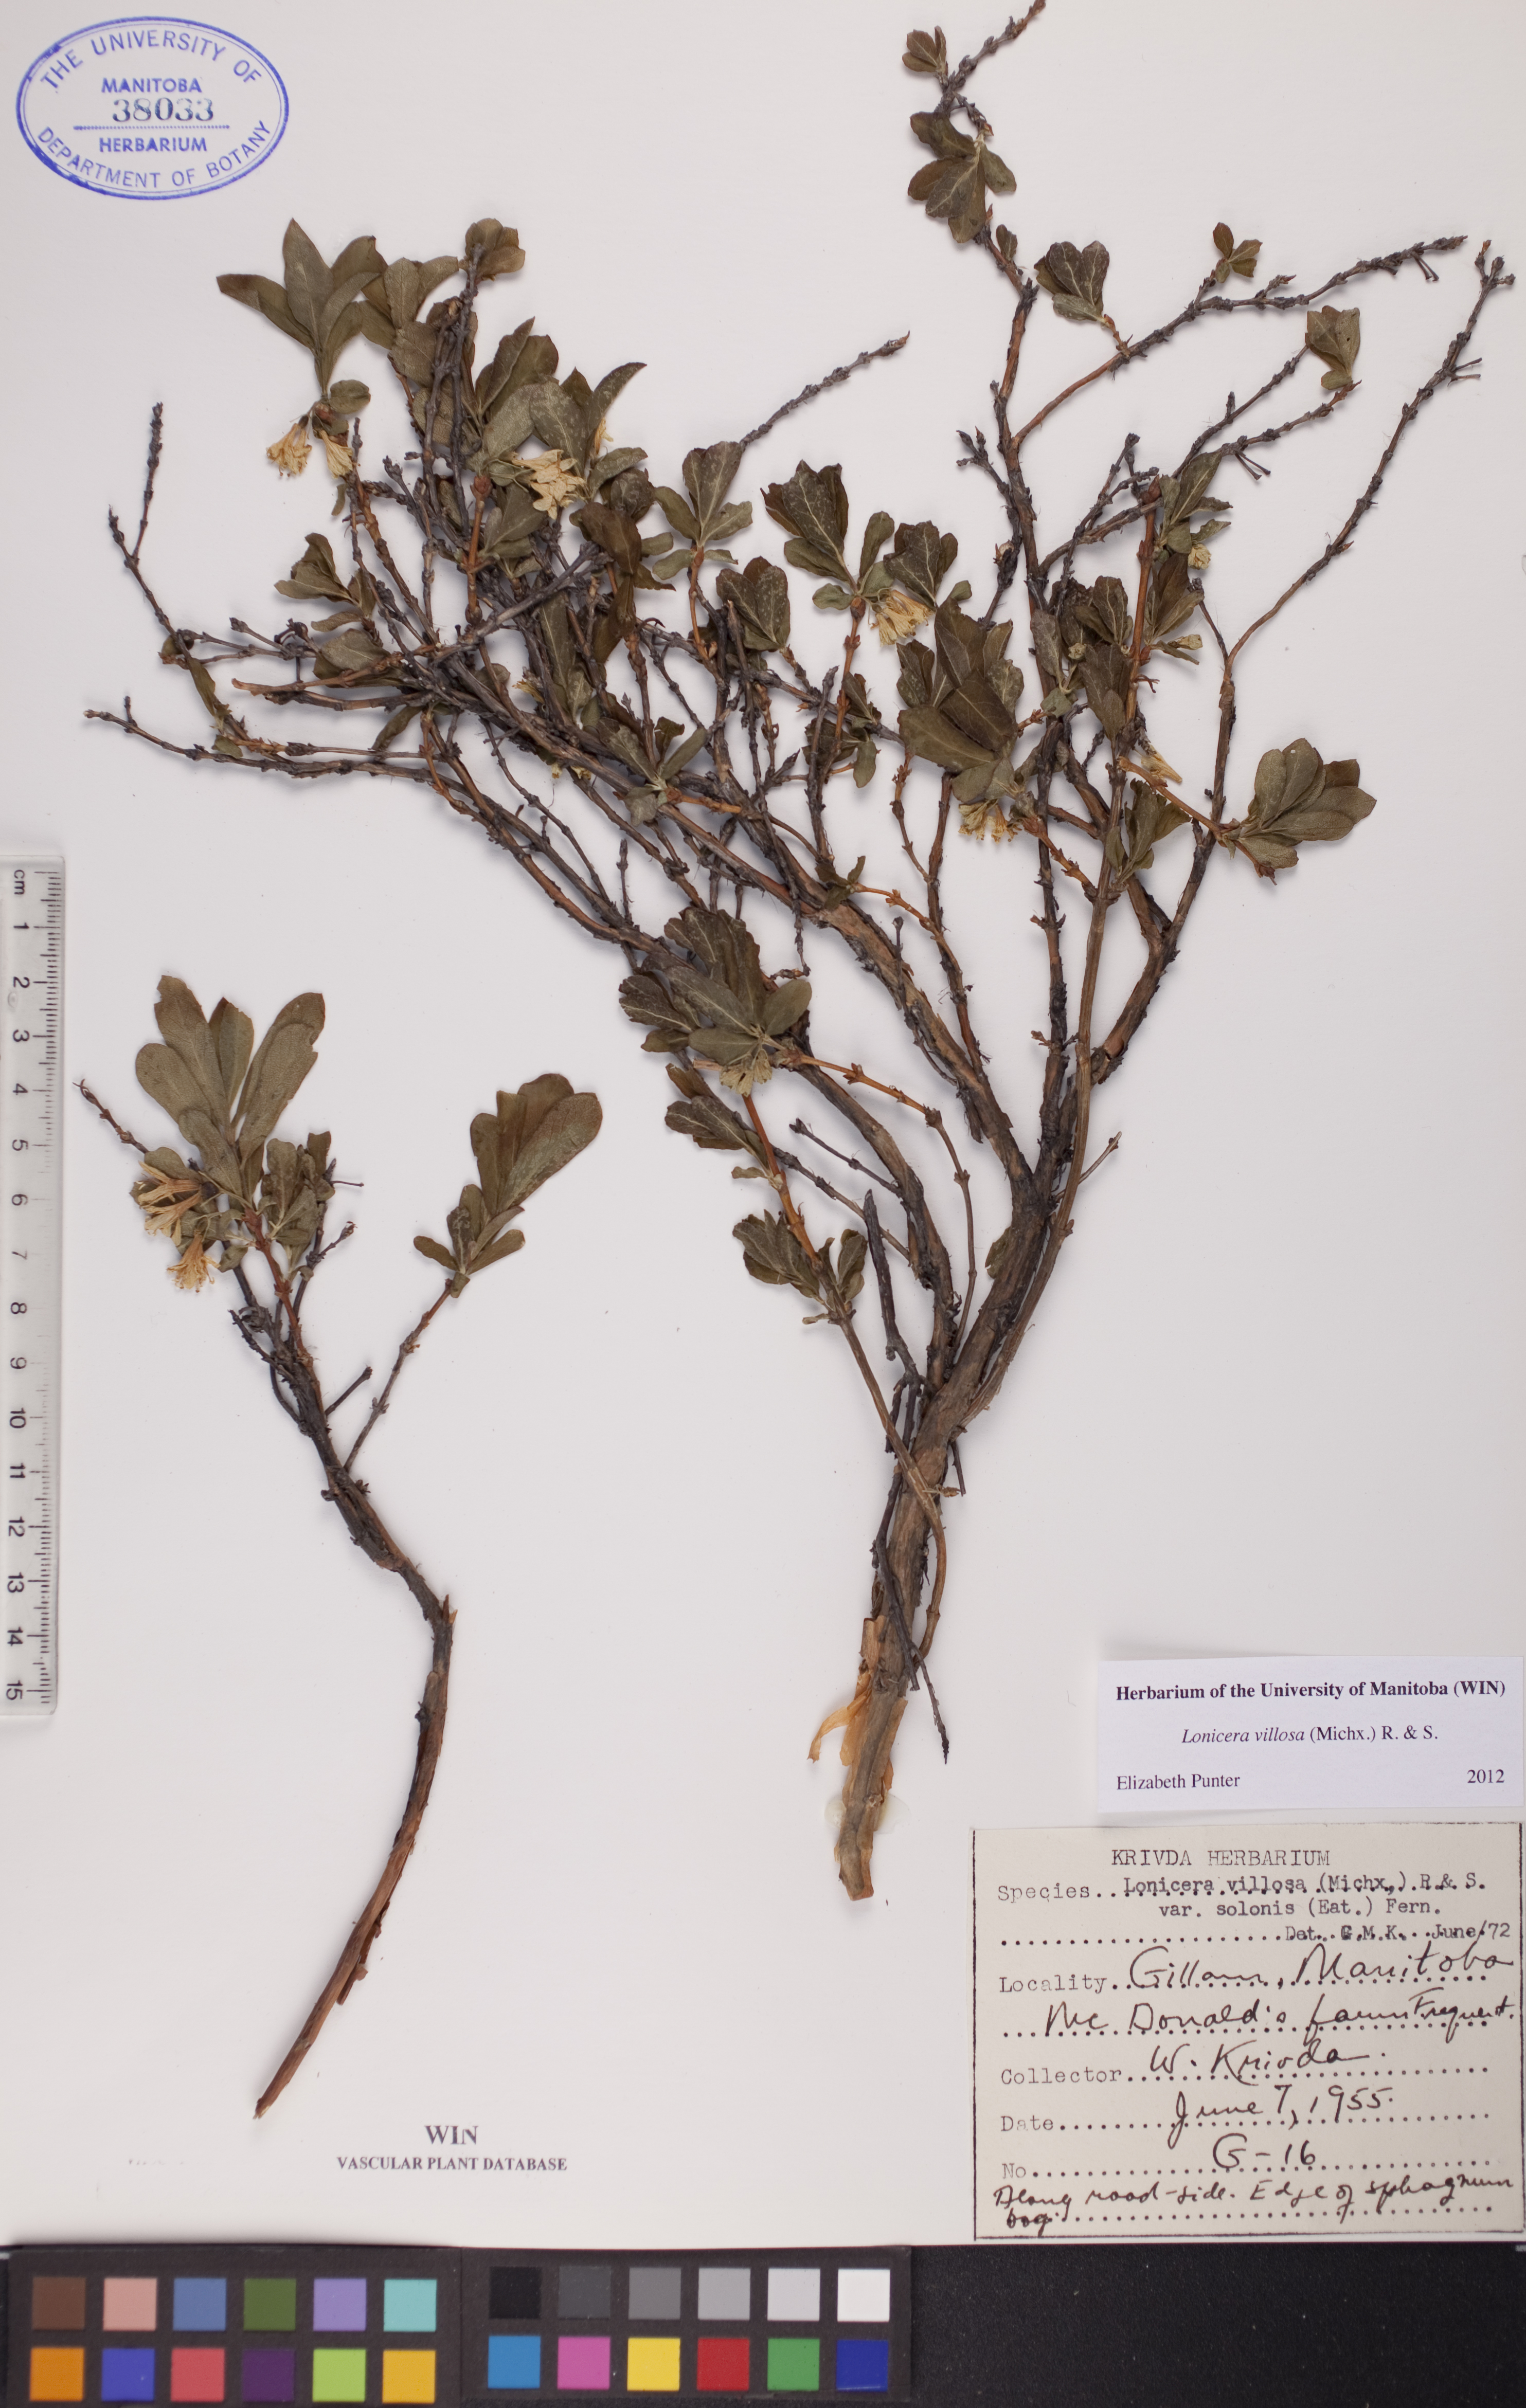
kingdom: Plantae
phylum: Tracheophyta
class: Magnoliopsida
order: Dipsacales
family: Caprifoliaceae
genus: Lonicera
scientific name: Lonicera villosa
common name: Mountain fly-honeysuckle
